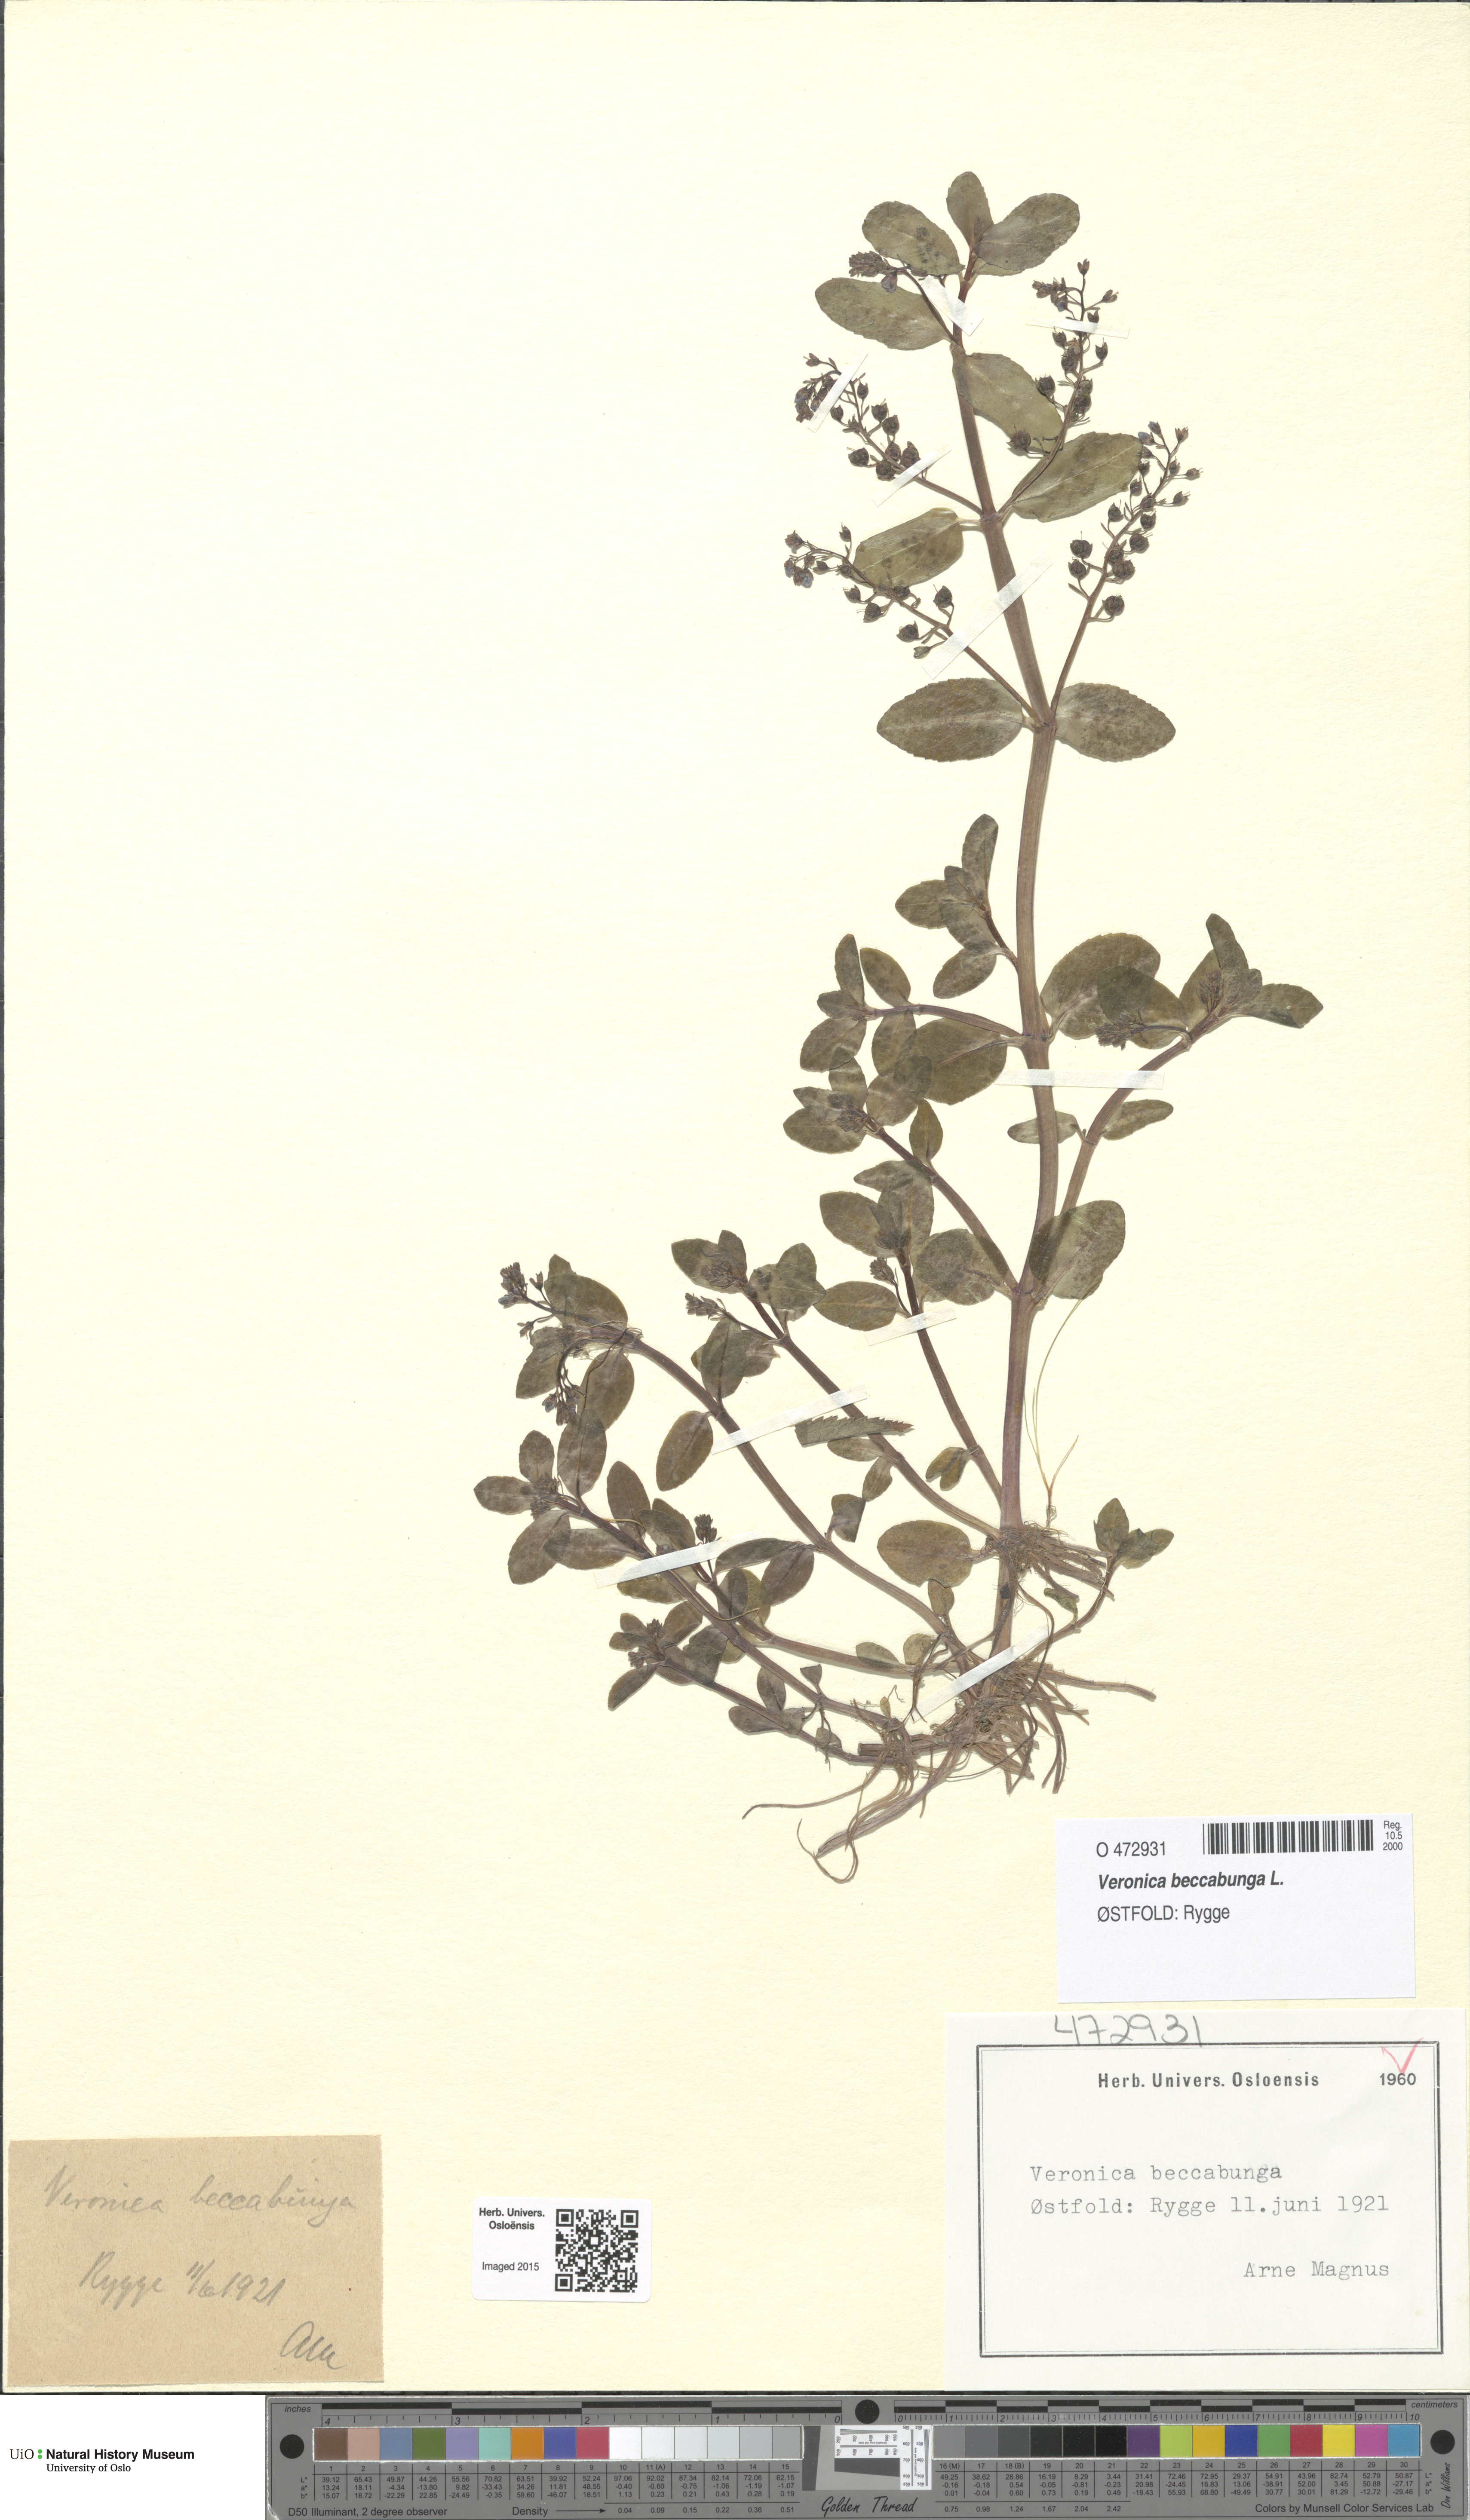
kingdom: Plantae
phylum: Tracheophyta
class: Magnoliopsida
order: Lamiales
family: Plantaginaceae
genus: Veronica
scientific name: Veronica beccabunga
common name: Brooklime
